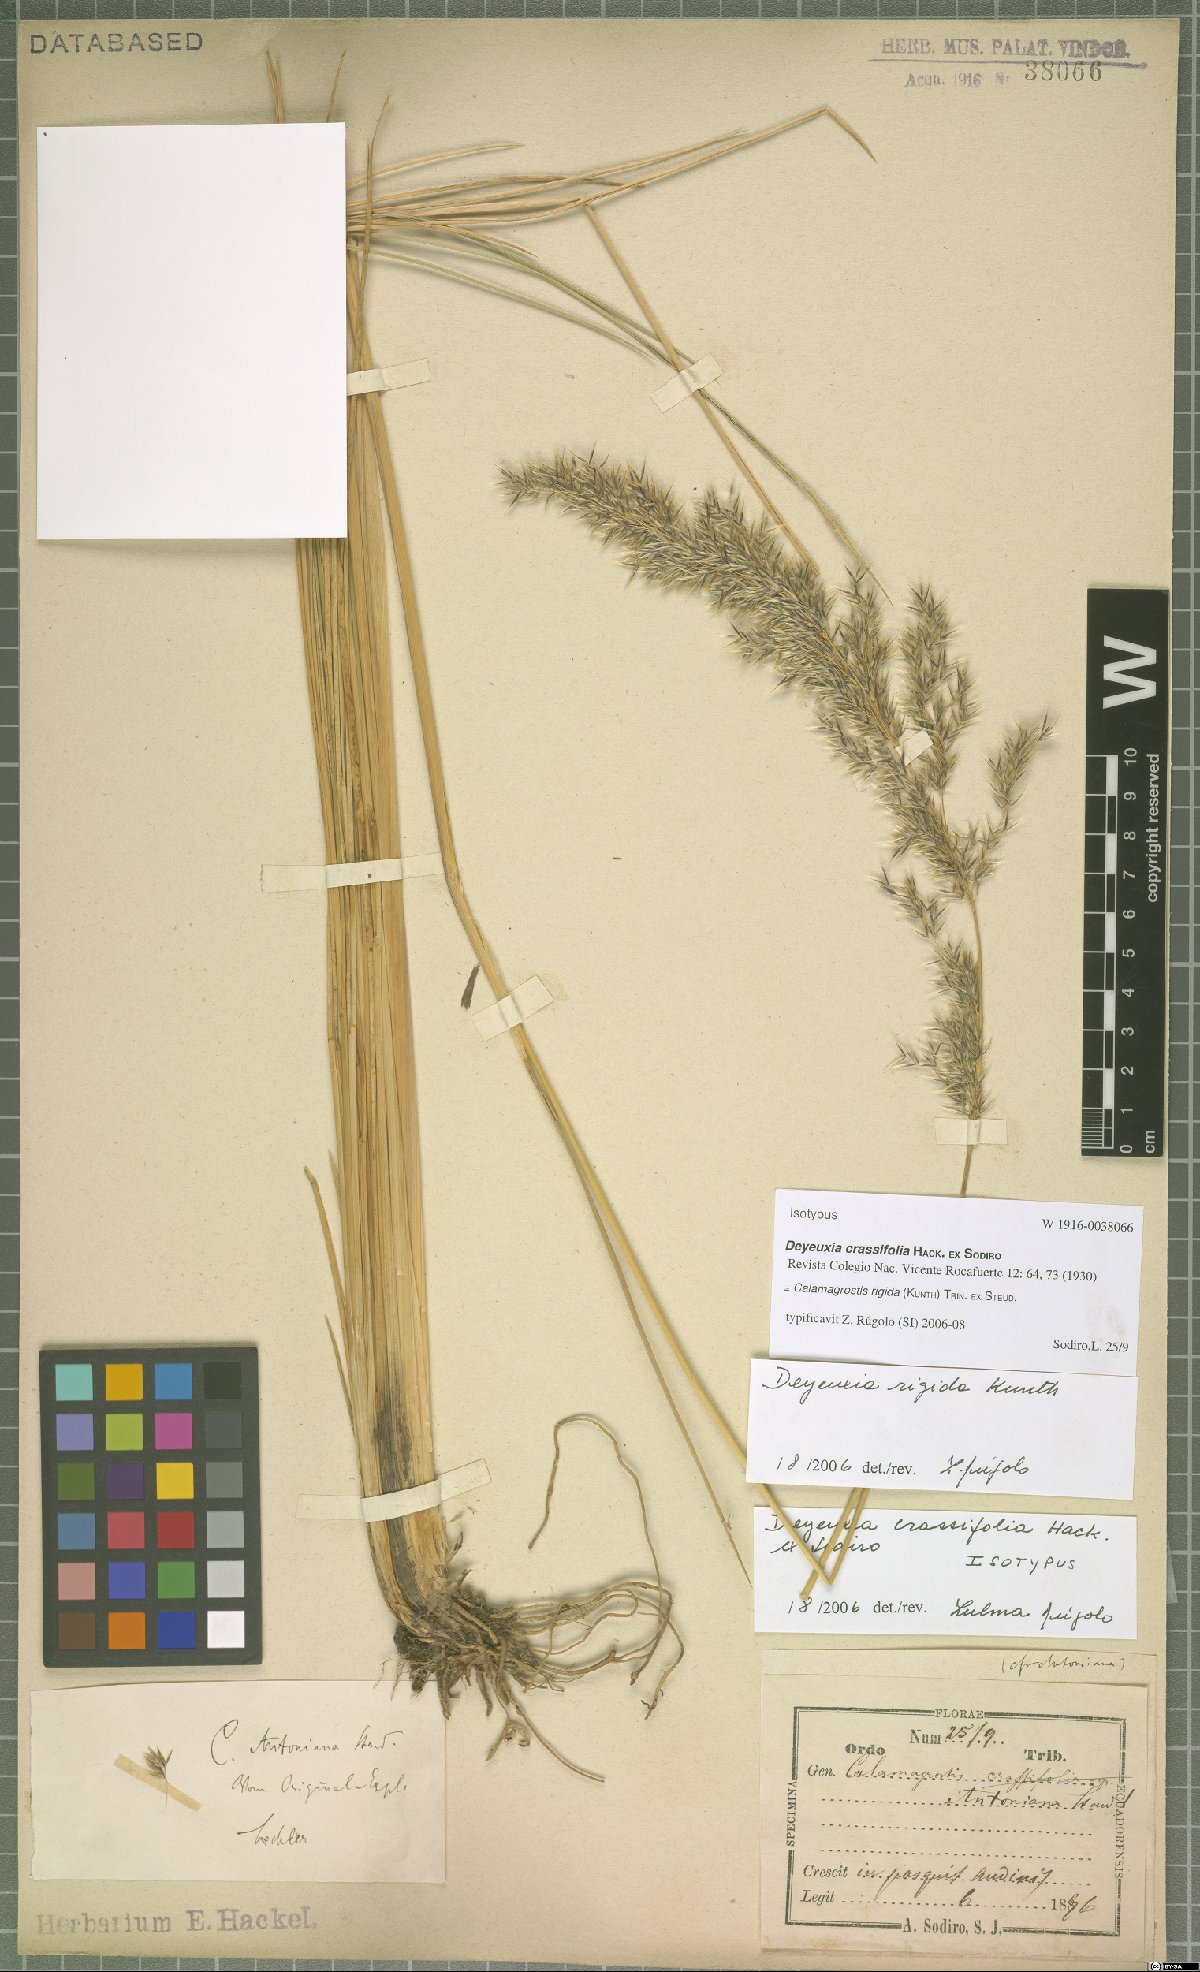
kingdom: Plantae
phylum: Tracheophyta
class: Liliopsida
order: Poales
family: Poaceae
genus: Cinnagrostis
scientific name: Cinnagrostis rigida
